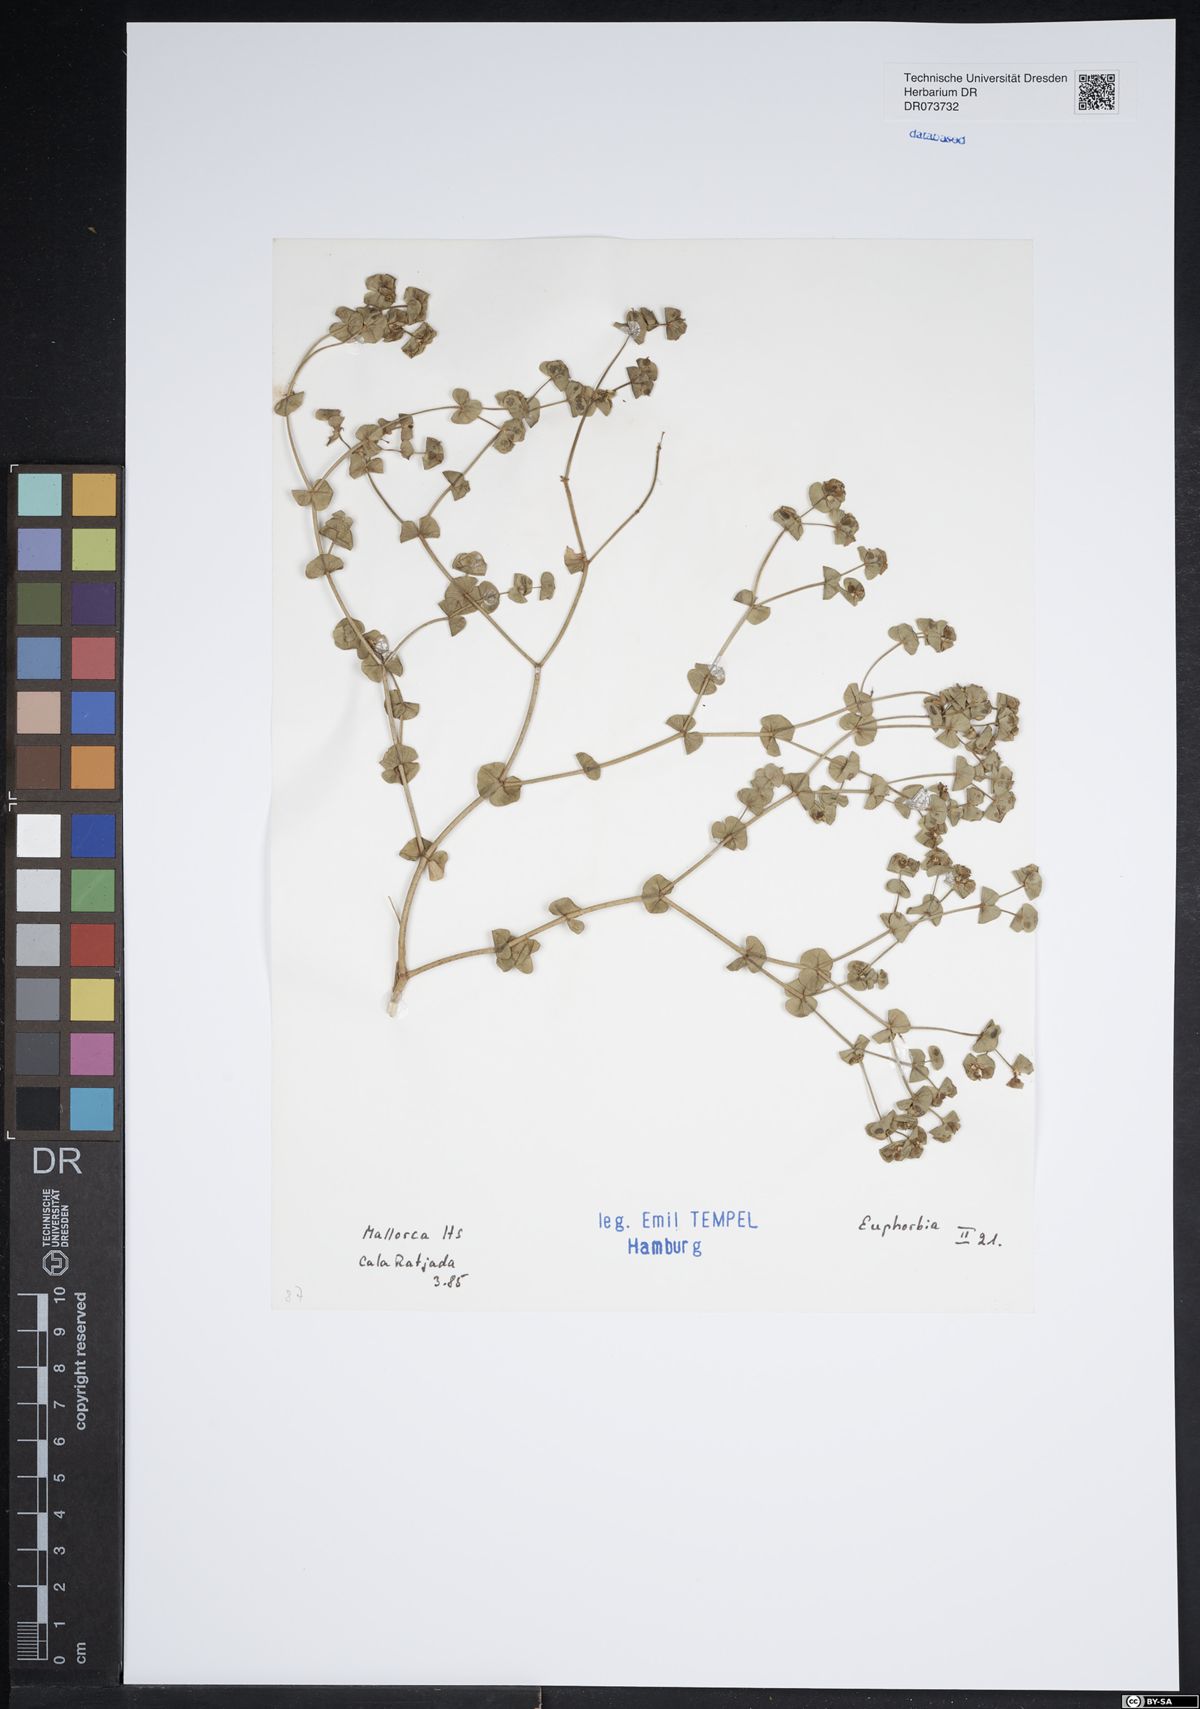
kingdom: Plantae
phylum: Tracheophyta
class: Magnoliopsida
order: Malpighiales
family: Euphorbiaceae
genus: Euphorbia
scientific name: Euphorbia
